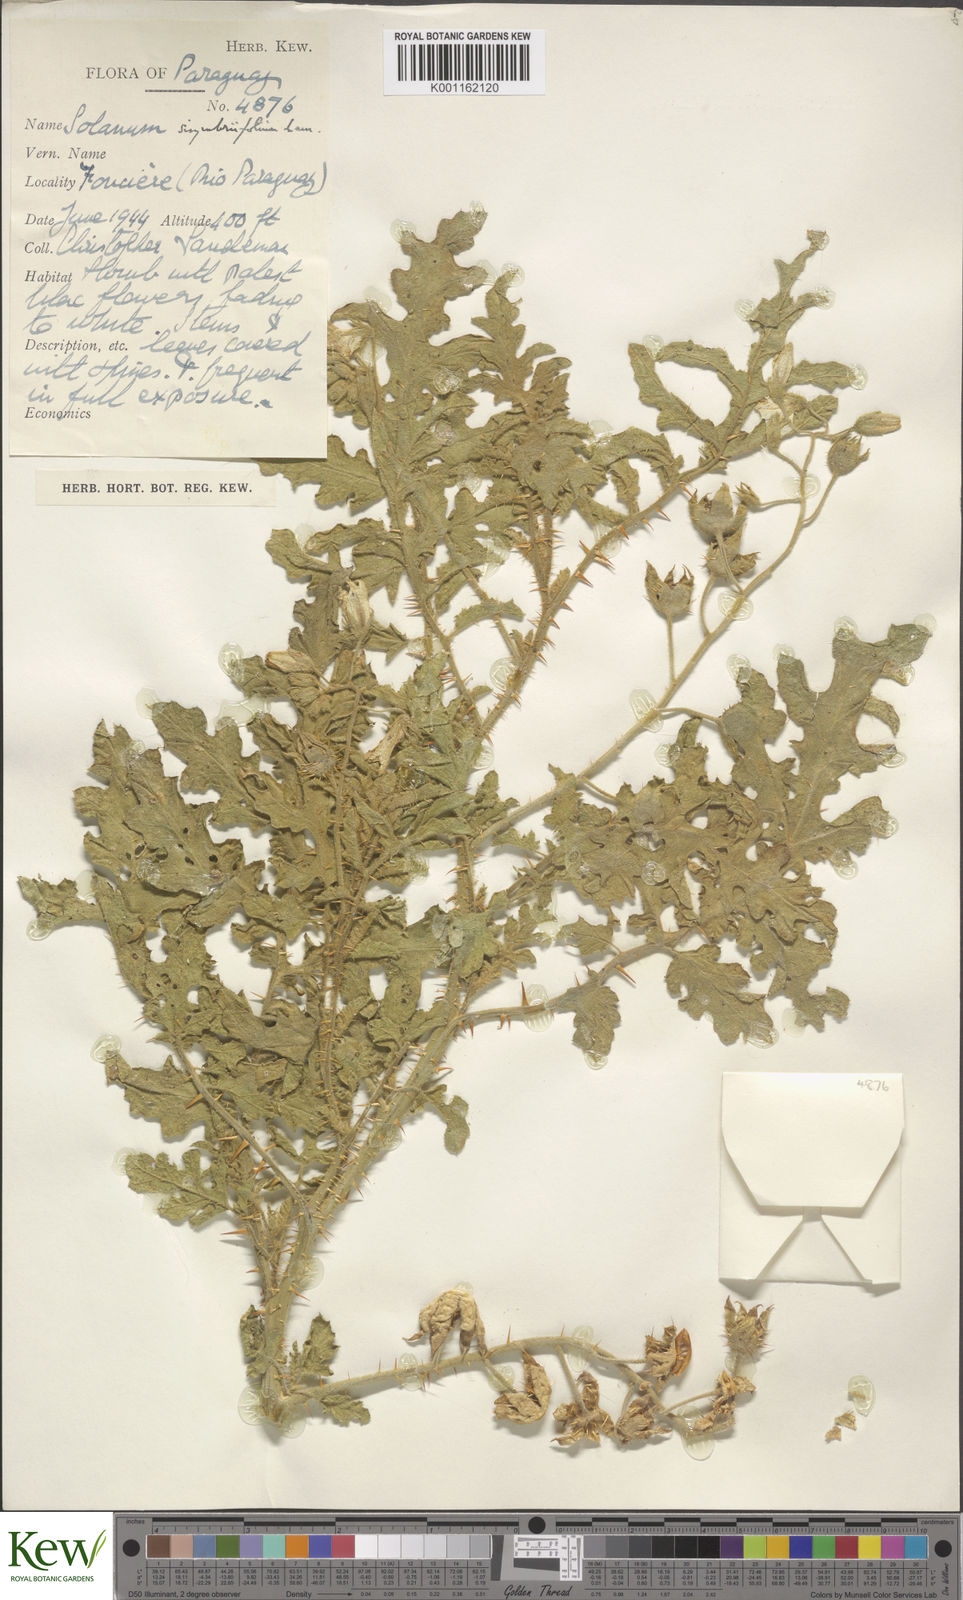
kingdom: Plantae
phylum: Tracheophyta
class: Magnoliopsida
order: Solanales
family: Solanaceae
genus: Solanum
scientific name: Solanum sisymbriifolium
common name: Red buffalo-bur
